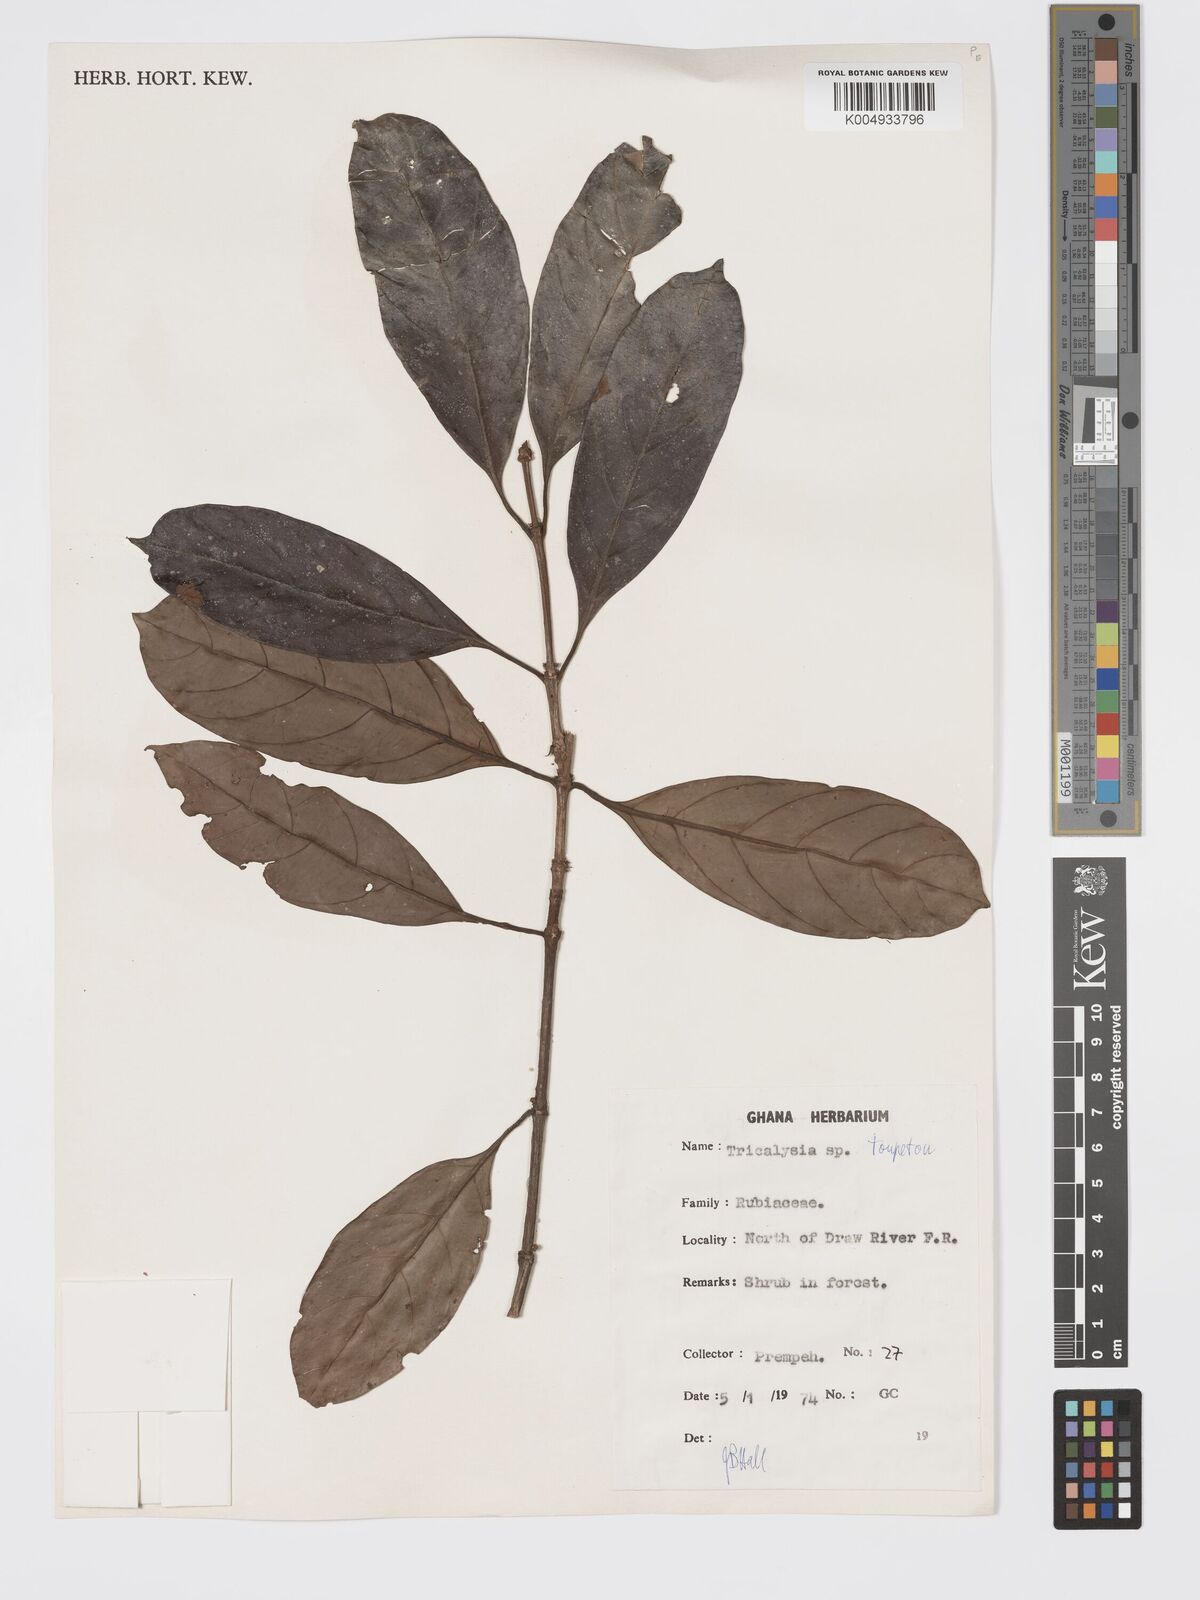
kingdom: Plantae
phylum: Tracheophyta
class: Magnoliopsida
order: Gentianales
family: Rubiaceae
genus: Sericanthe
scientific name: Sericanthe toupetou
